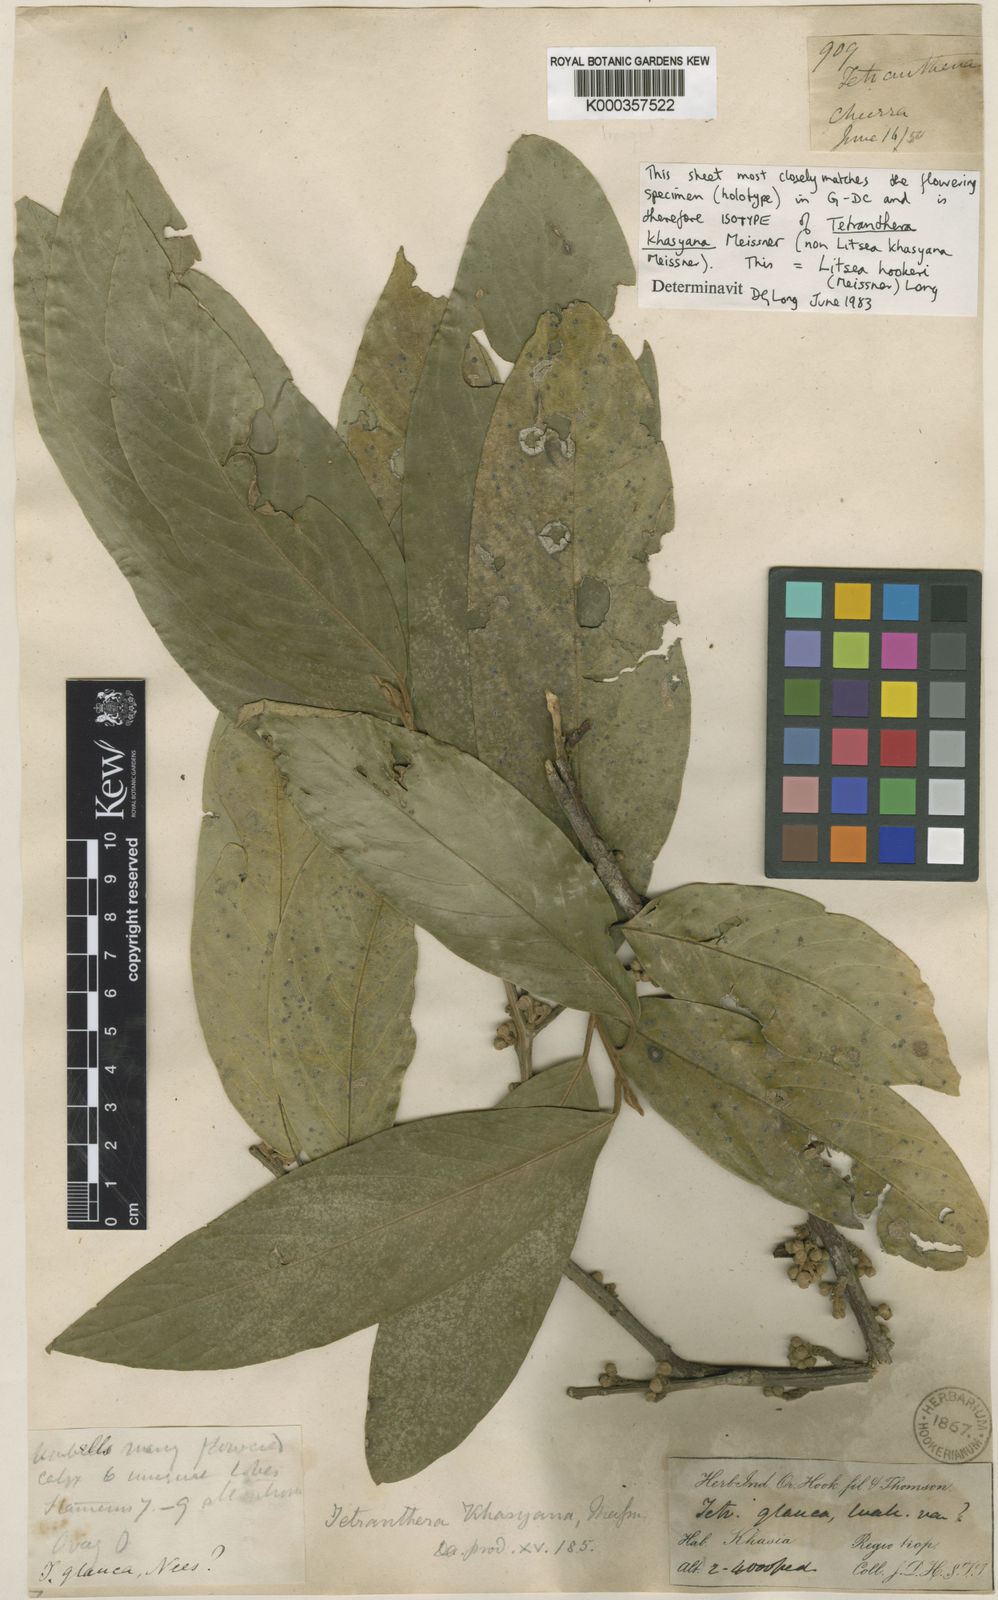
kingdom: Plantae
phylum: Tracheophyta
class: Magnoliopsida
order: Laurales
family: Lauraceae
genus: Litsea
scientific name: Litsea khasyana
